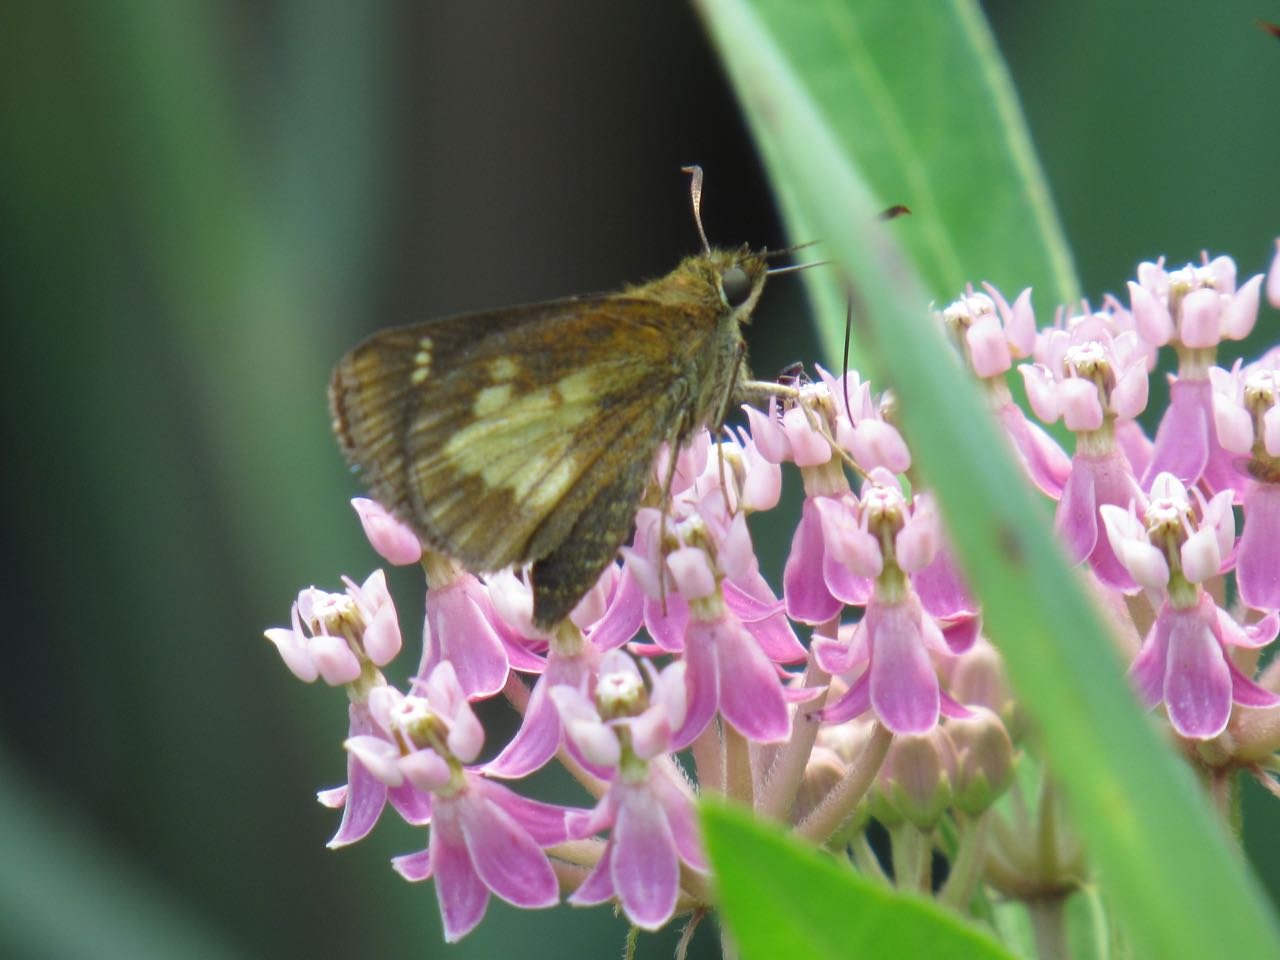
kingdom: Animalia
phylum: Arthropoda
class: Insecta
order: Lepidoptera
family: Hesperiidae
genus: Poanes
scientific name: Poanes massasoit
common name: Mulberry Wing
